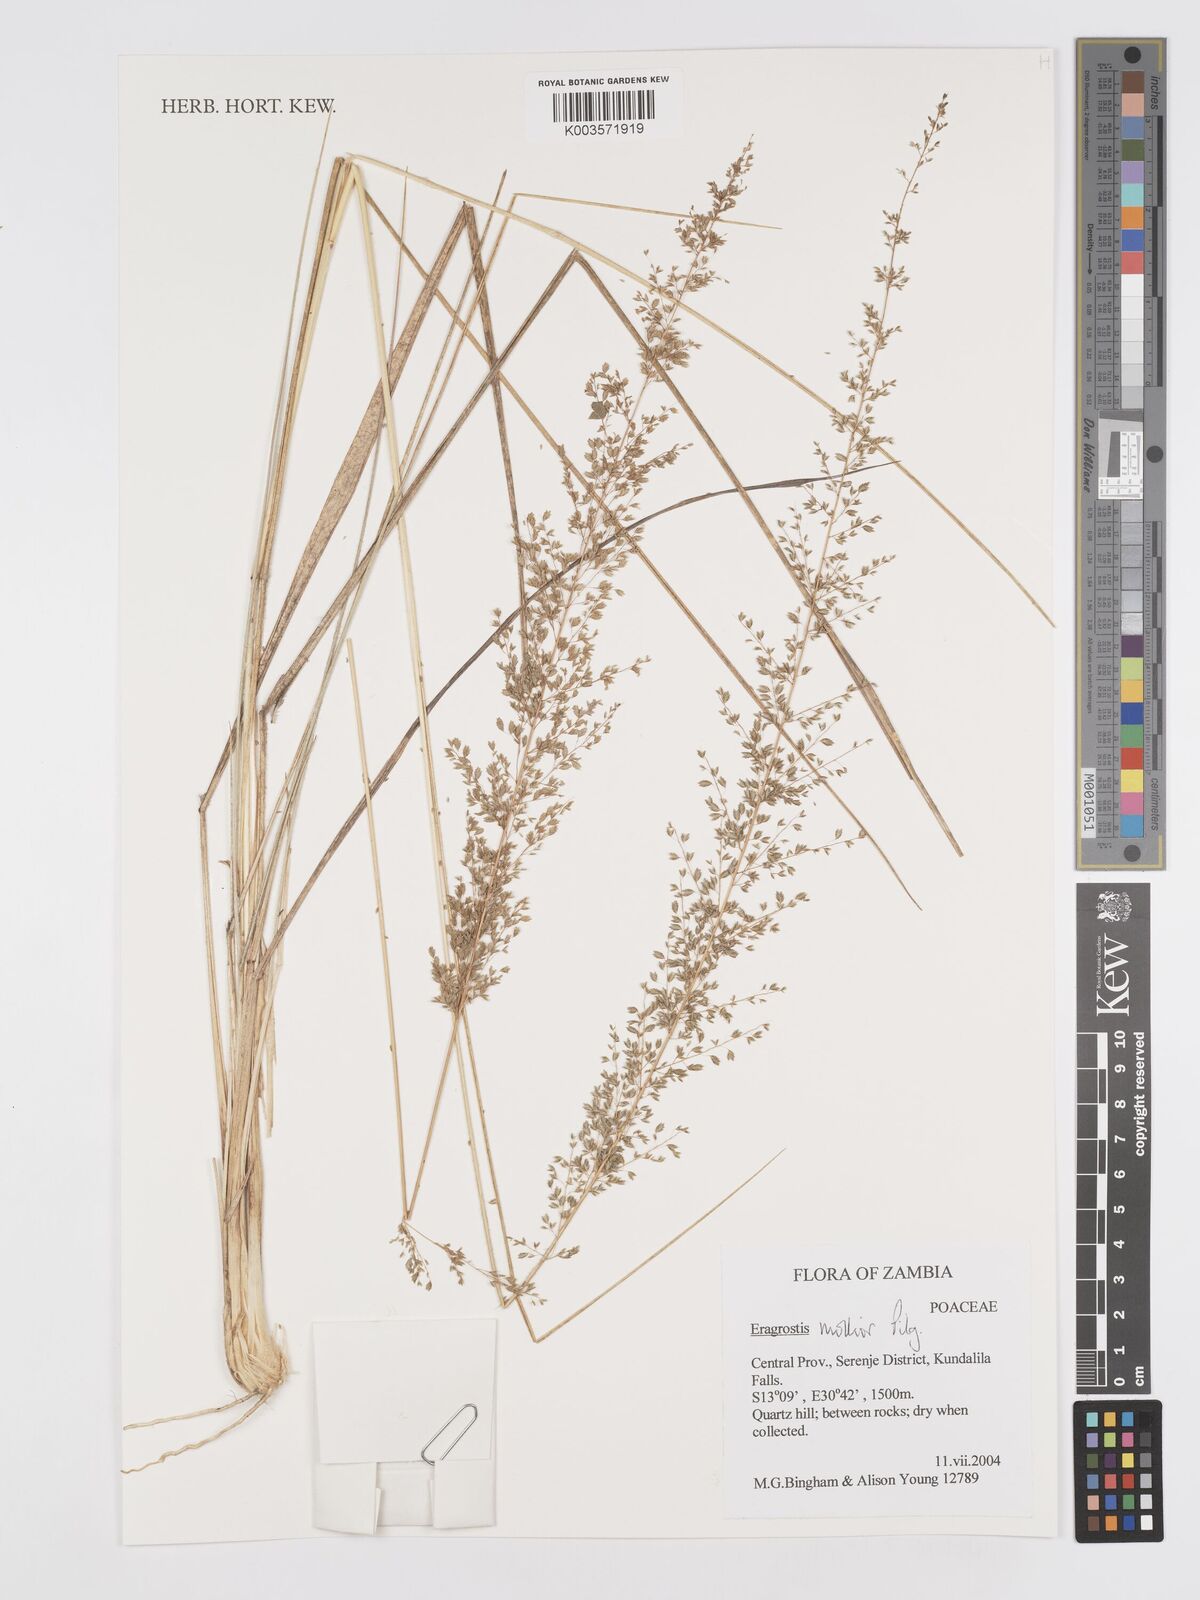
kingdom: Plantae
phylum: Tracheophyta
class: Liliopsida
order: Poales
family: Poaceae
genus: Eragrostis
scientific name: Eragrostis mollior
